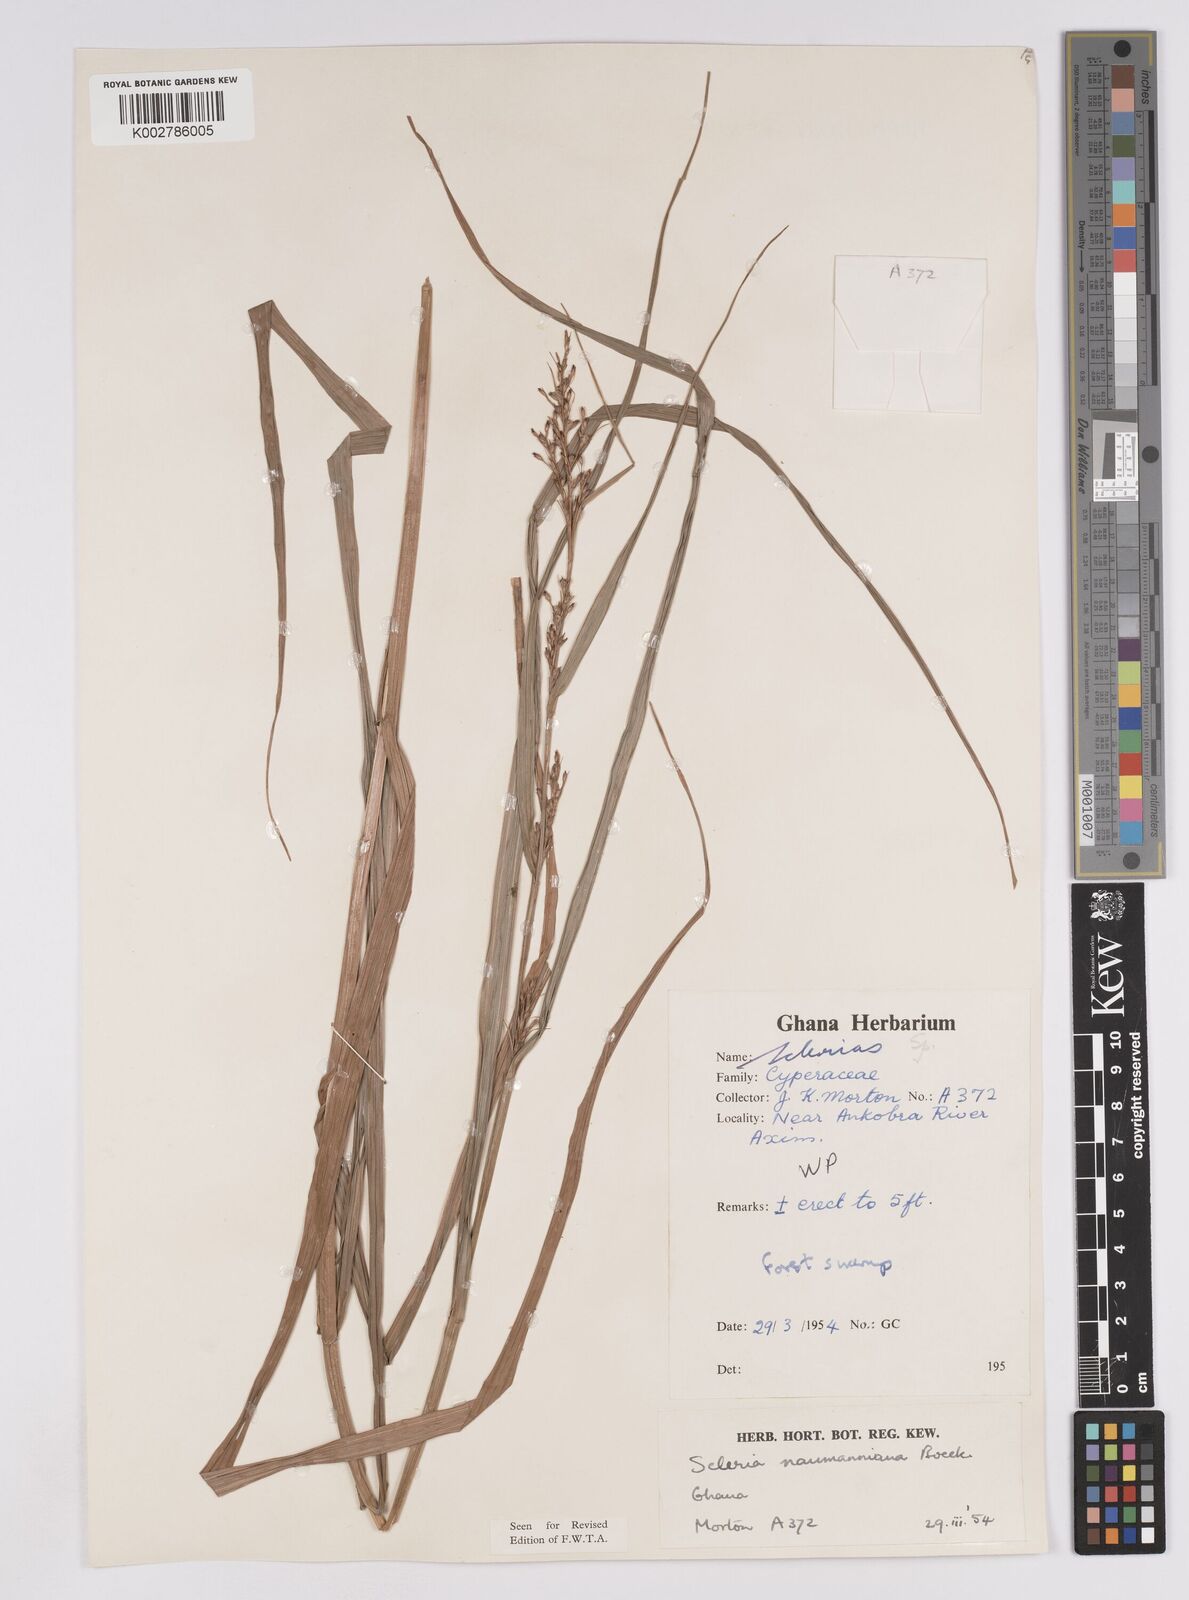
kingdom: Plantae
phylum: Tracheophyta
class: Liliopsida
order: Poales
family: Cyperaceae
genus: Scleria
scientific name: Scleria naumanniana
